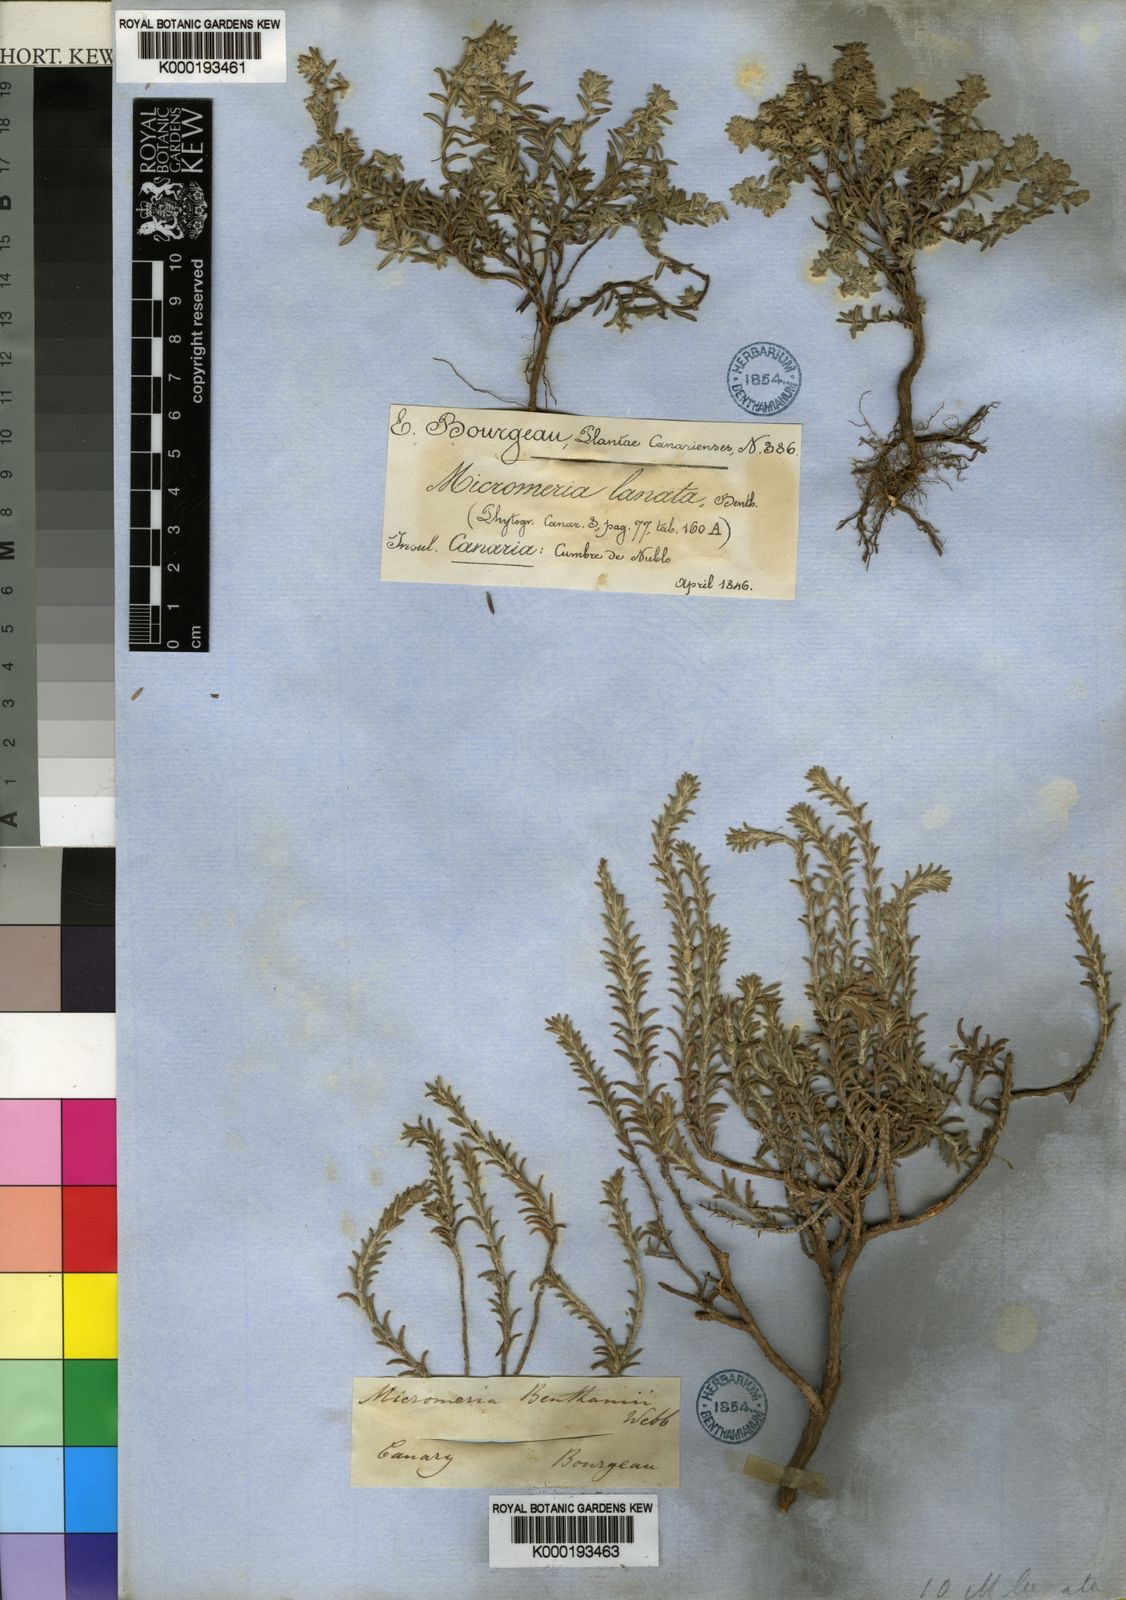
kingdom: Plantae
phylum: Tracheophyta
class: Magnoliopsida
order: Lamiales
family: Lamiaceae
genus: Micromeria
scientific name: Micromeria benthamii
